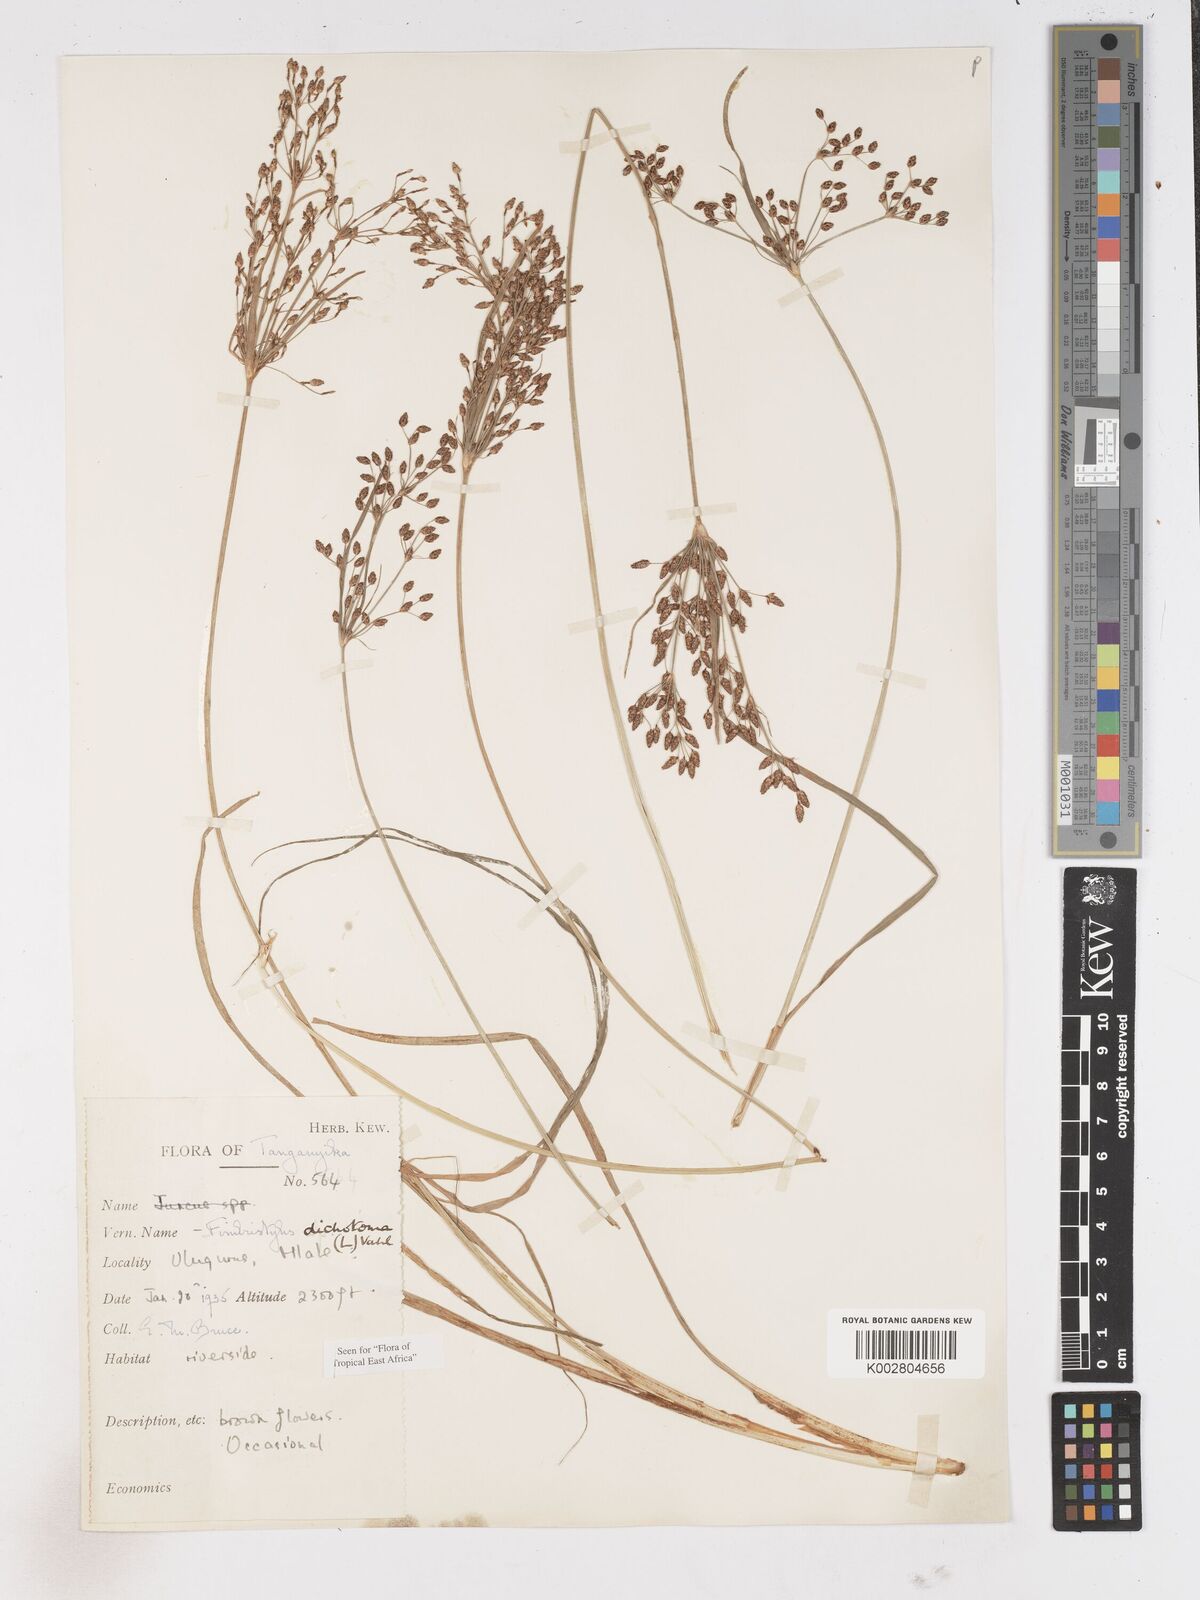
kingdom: Plantae
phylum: Tracheophyta
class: Liliopsida
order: Poales
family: Cyperaceae
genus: Fimbristylis
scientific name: Fimbristylis dichotoma
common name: Forked fimbry
